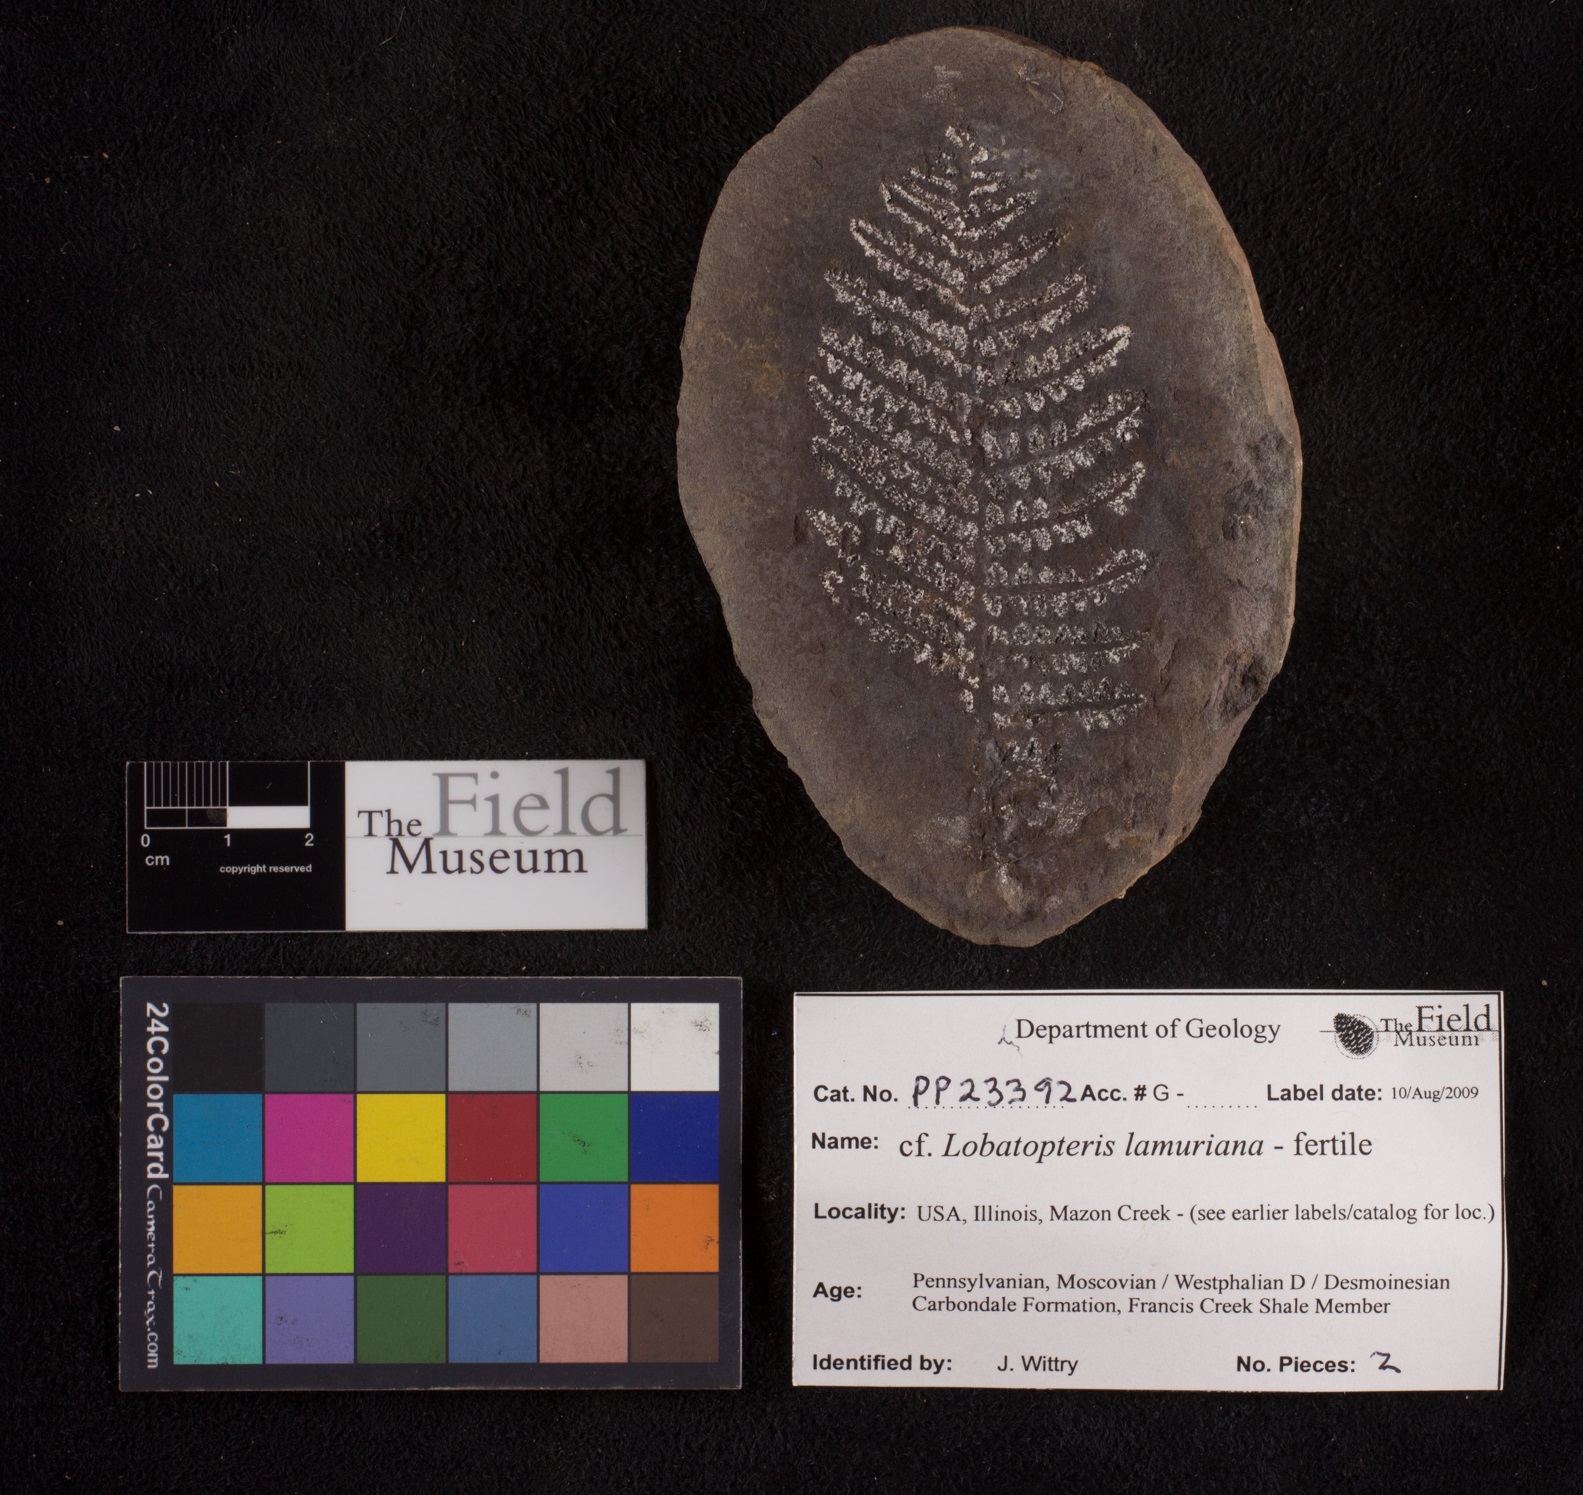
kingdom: Plantae
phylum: Tracheophyta
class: Polypodiopsida
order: Marattiales
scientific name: Marattiales
